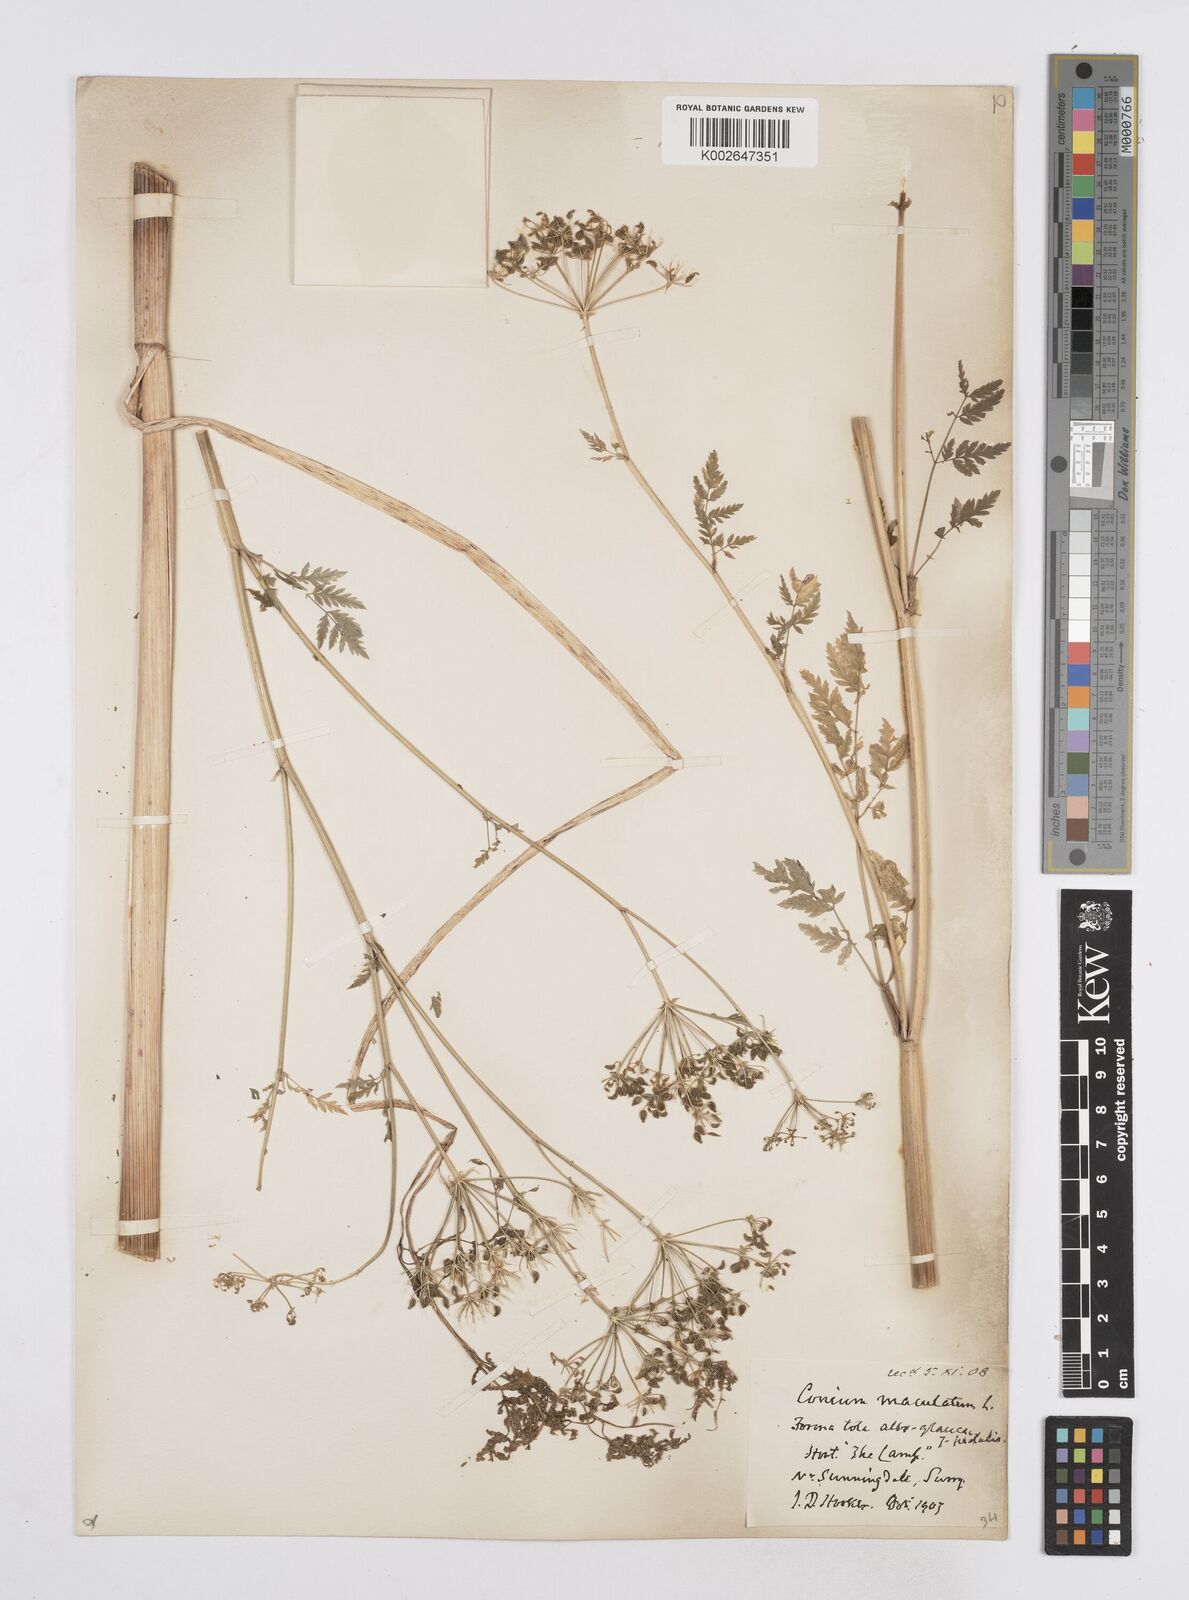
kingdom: Plantae
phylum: Tracheophyta
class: Magnoliopsida
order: Apiales
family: Apiaceae
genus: Conium
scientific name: Conium maculatum
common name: Hemlock
